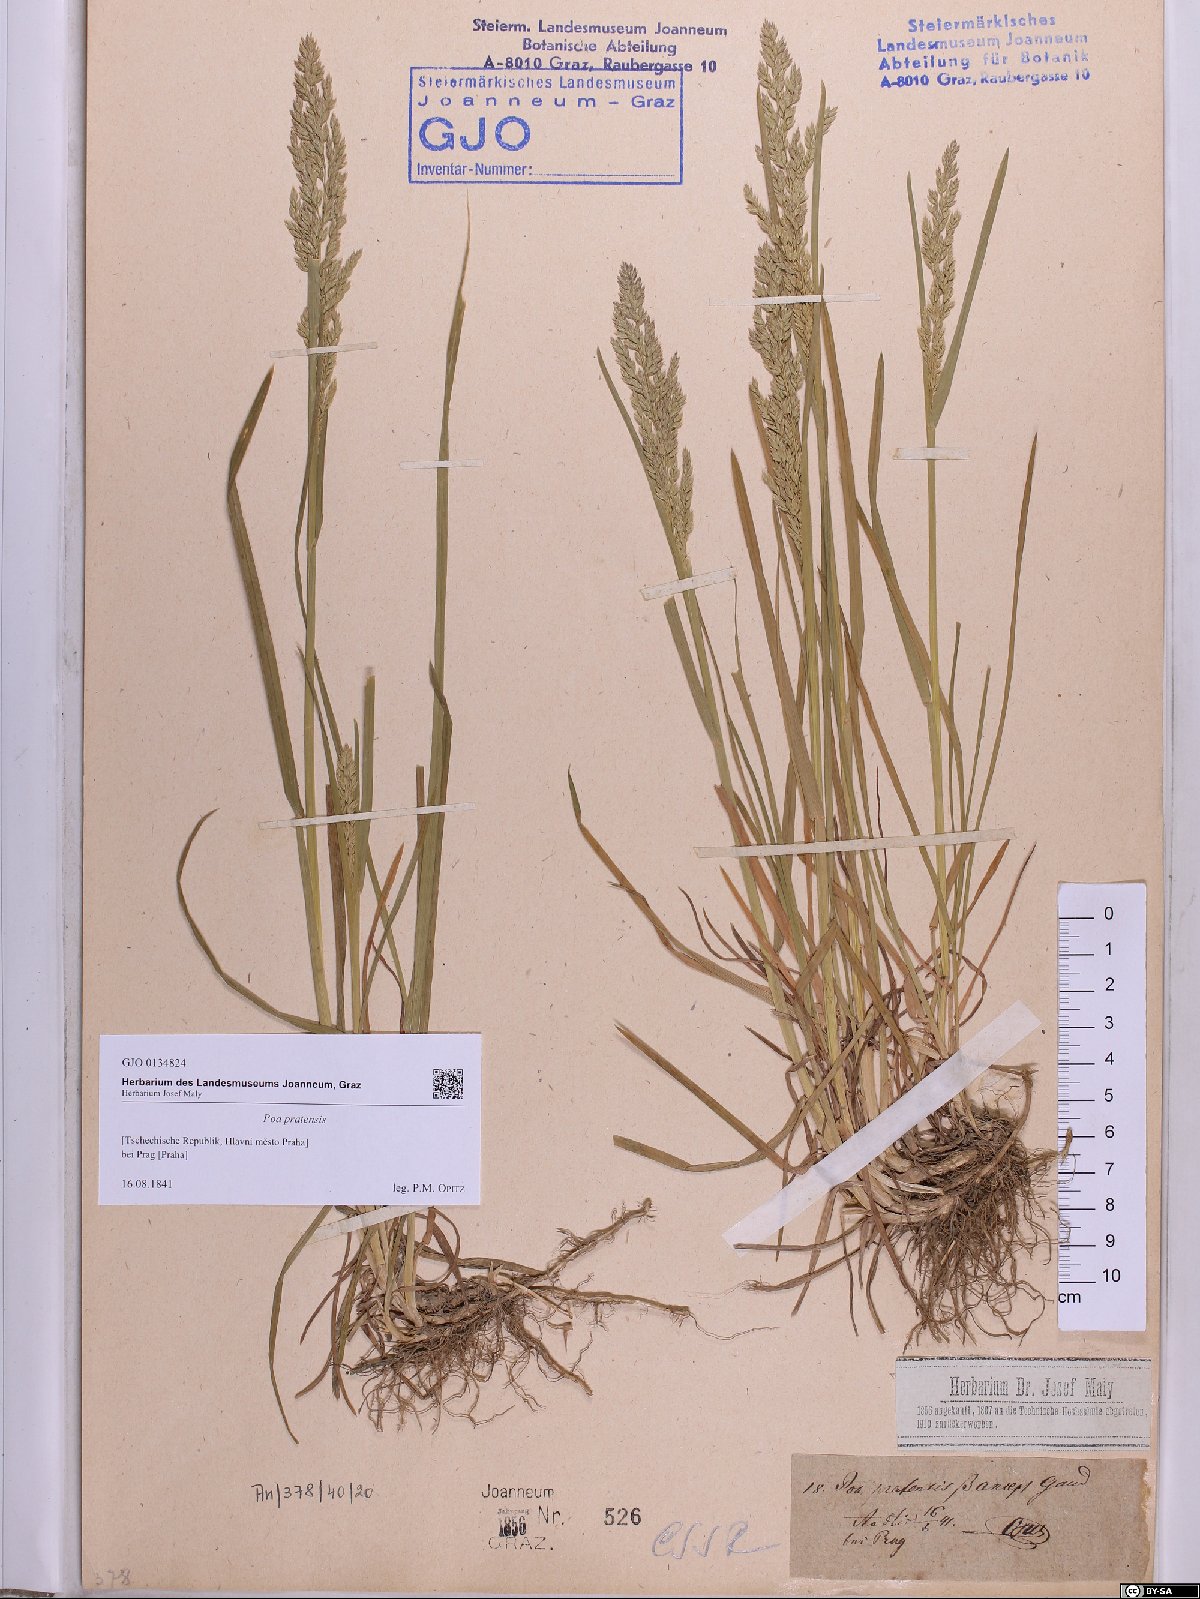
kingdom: Plantae
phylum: Tracheophyta
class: Liliopsida
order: Poales
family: Poaceae
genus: Poa
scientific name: Poa pratensis
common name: Kentucky bluegrass
